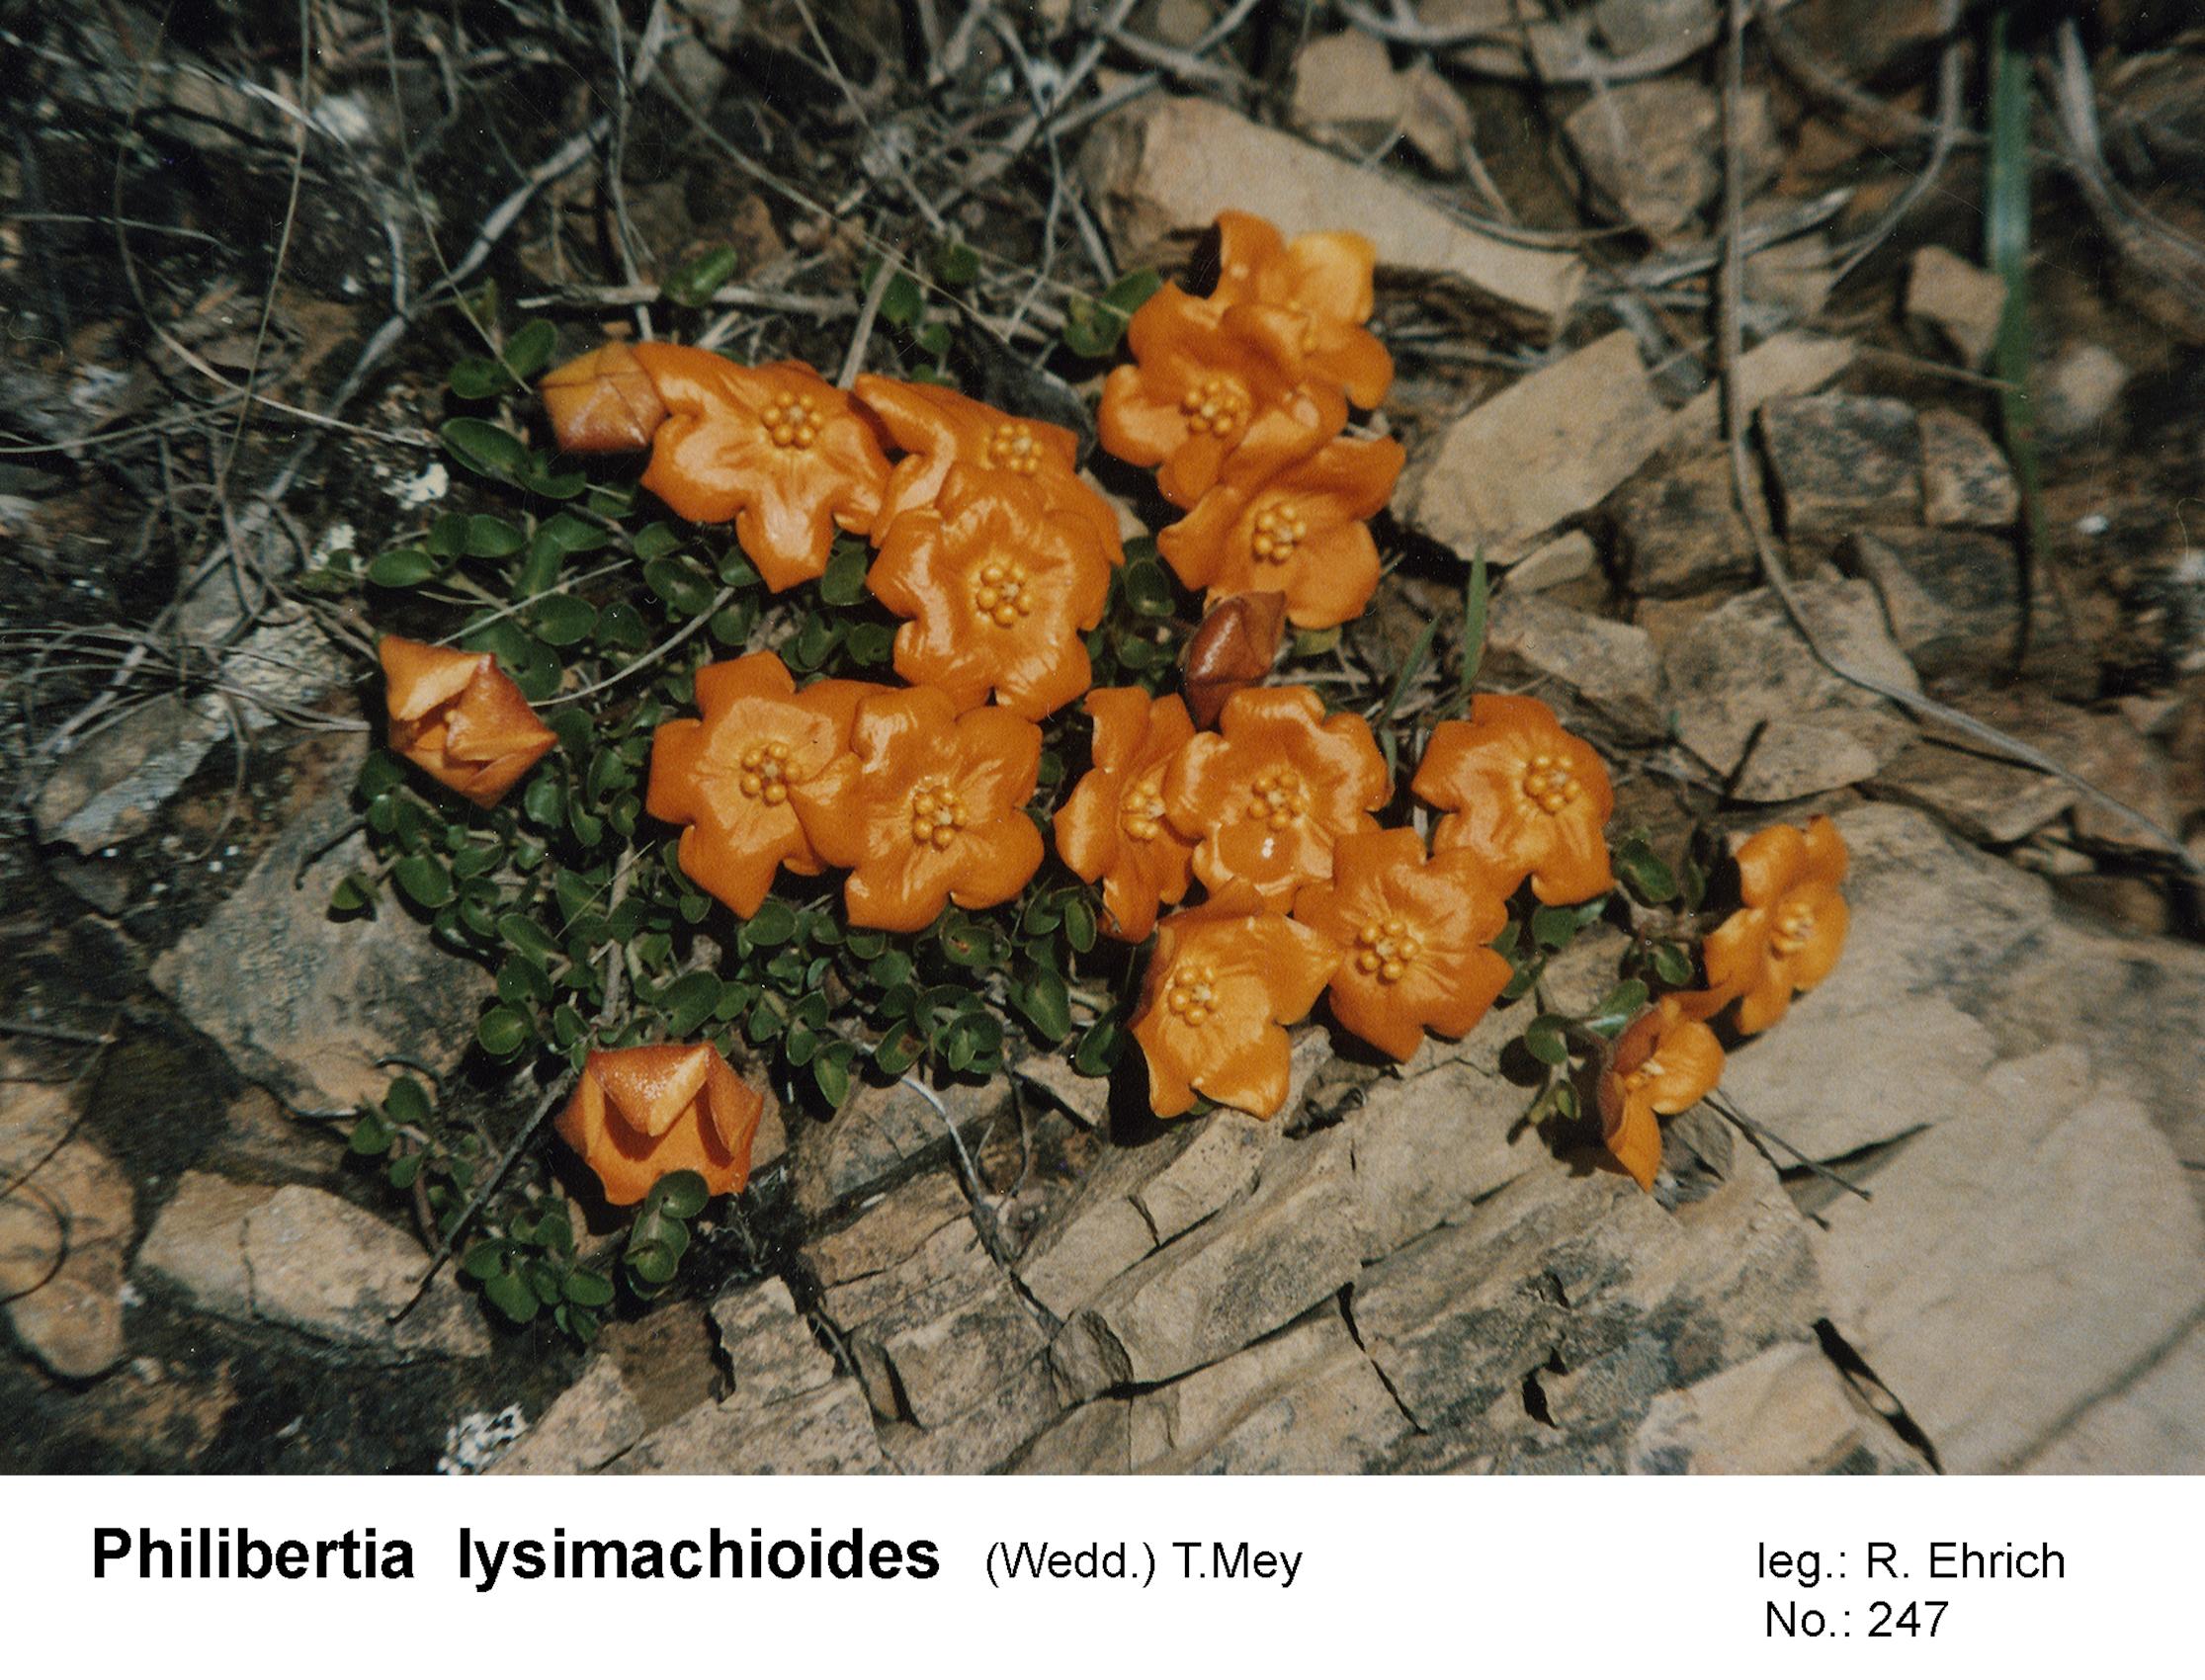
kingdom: Plantae
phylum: Tracheophyta
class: Magnoliopsida
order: Gentianales
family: Apocynaceae
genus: Philibertia
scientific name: Philibertia lysimachioides
